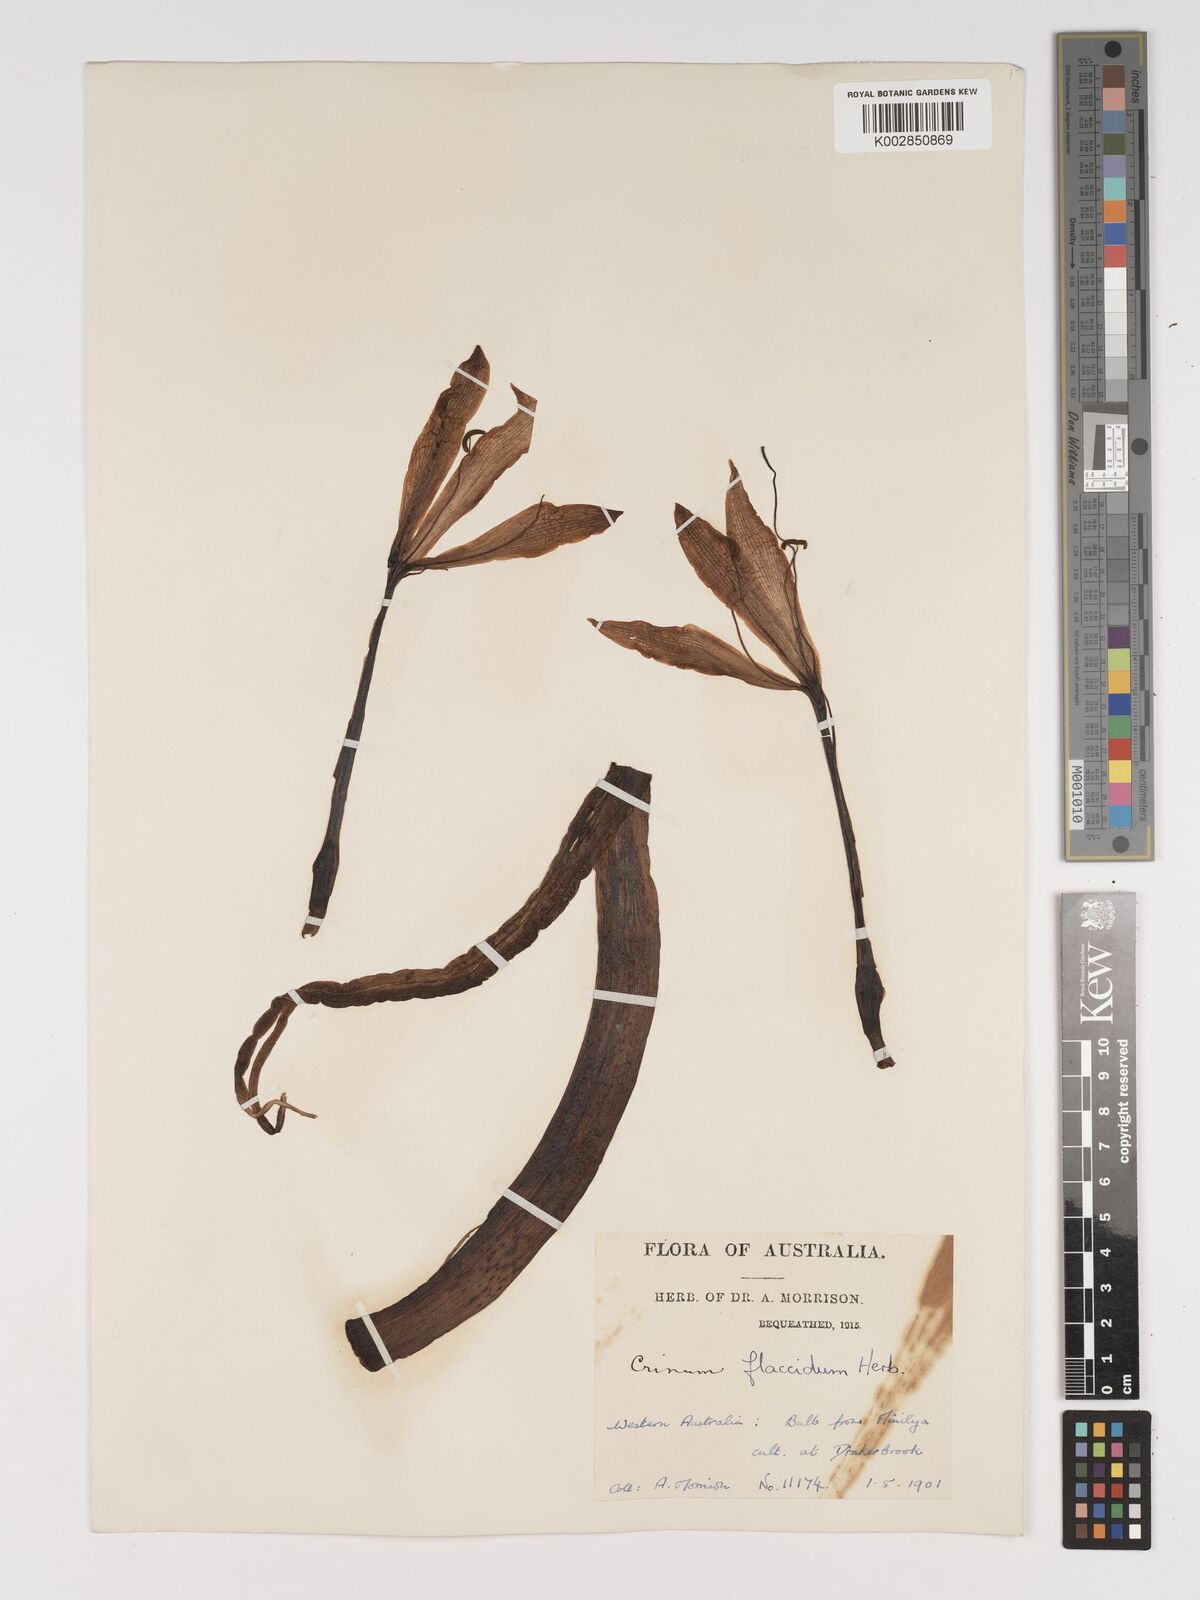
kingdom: Plantae
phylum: Tracheophyta
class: Liliopsida
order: Asparagales
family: Amaryllidaceae
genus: Crinum
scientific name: Crinum flaccidum
